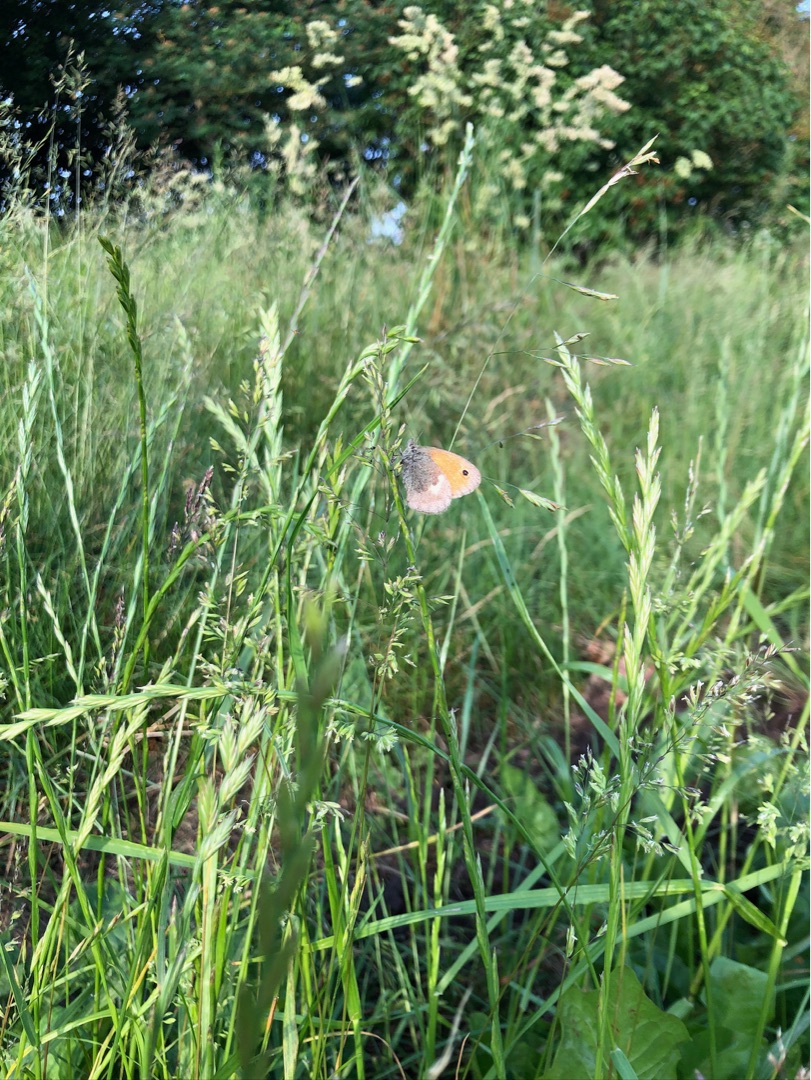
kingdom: Animalia
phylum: Arthropoda
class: Insecta
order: Lepidoptera
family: Nymphalidae
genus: Coenonympha
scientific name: Coenonympha pamphilus
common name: Okkergul randøje
